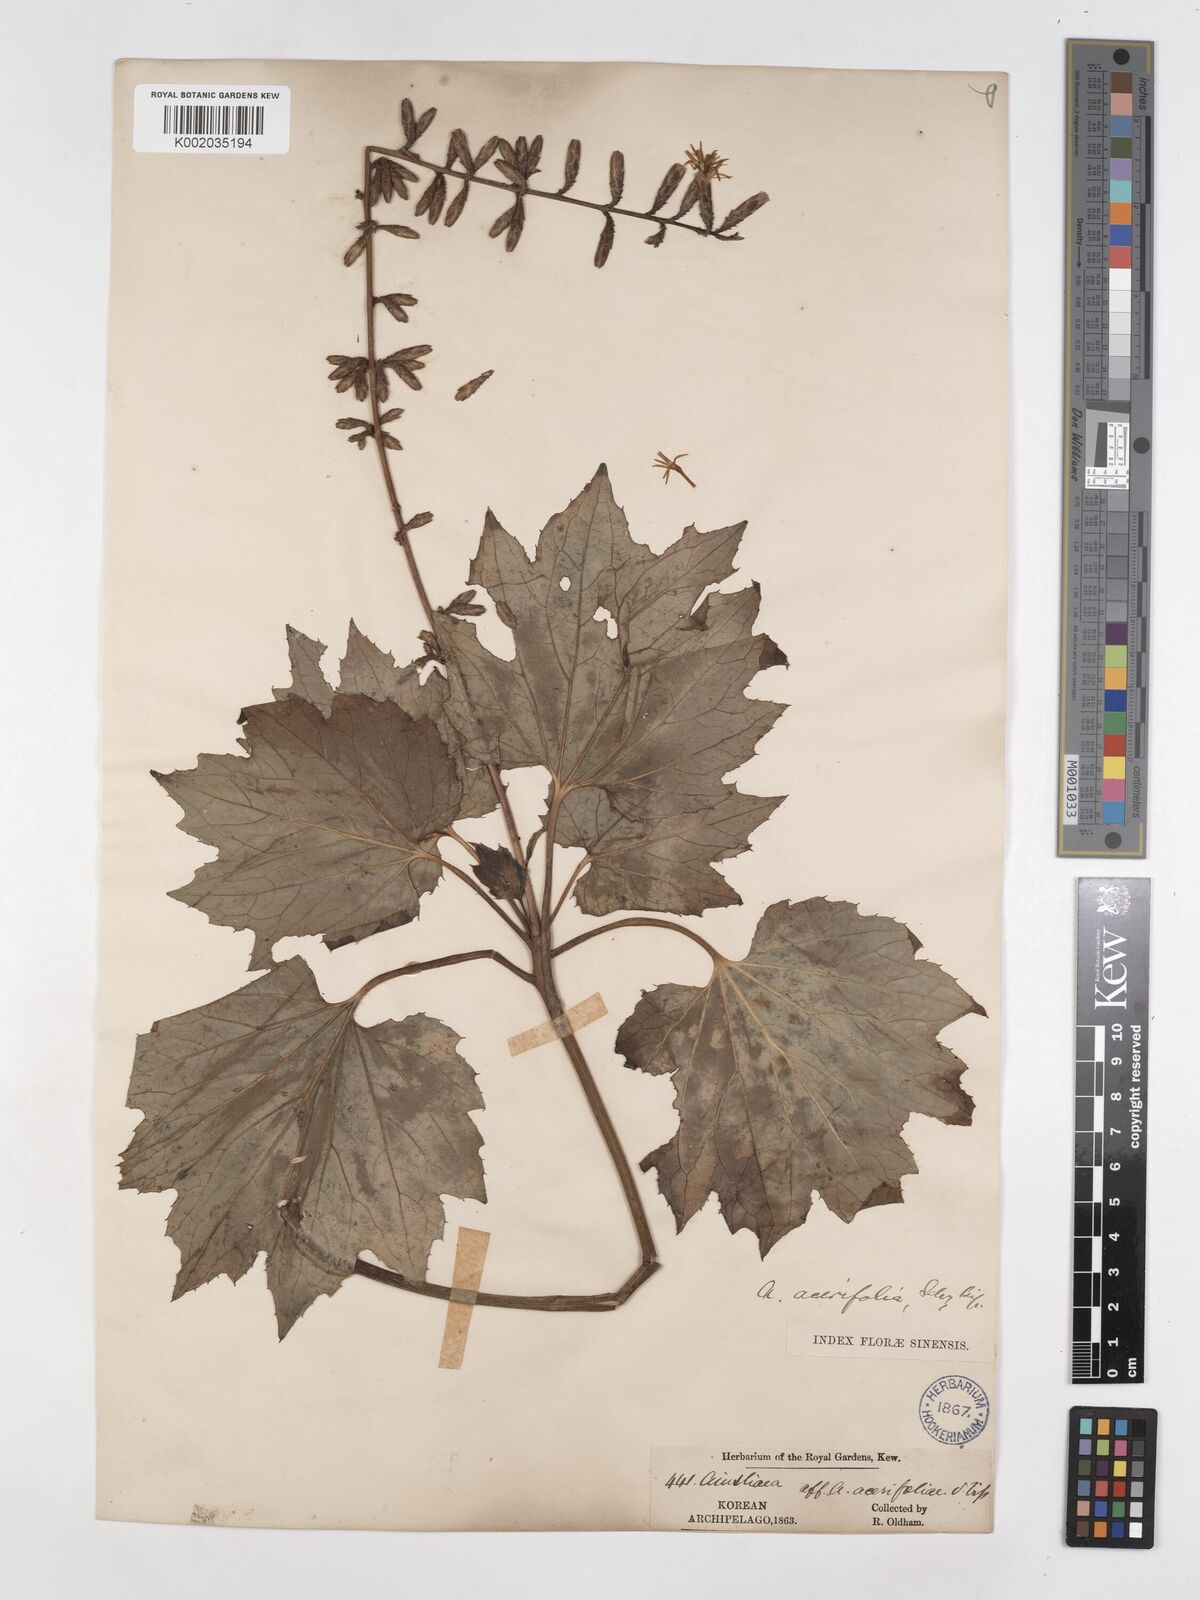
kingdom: Plantae
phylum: Tracheophyta
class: Magnoliopsida
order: Asterales
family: Asteraceae
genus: Ainsliaea
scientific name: Ainsliaea acerifolia
